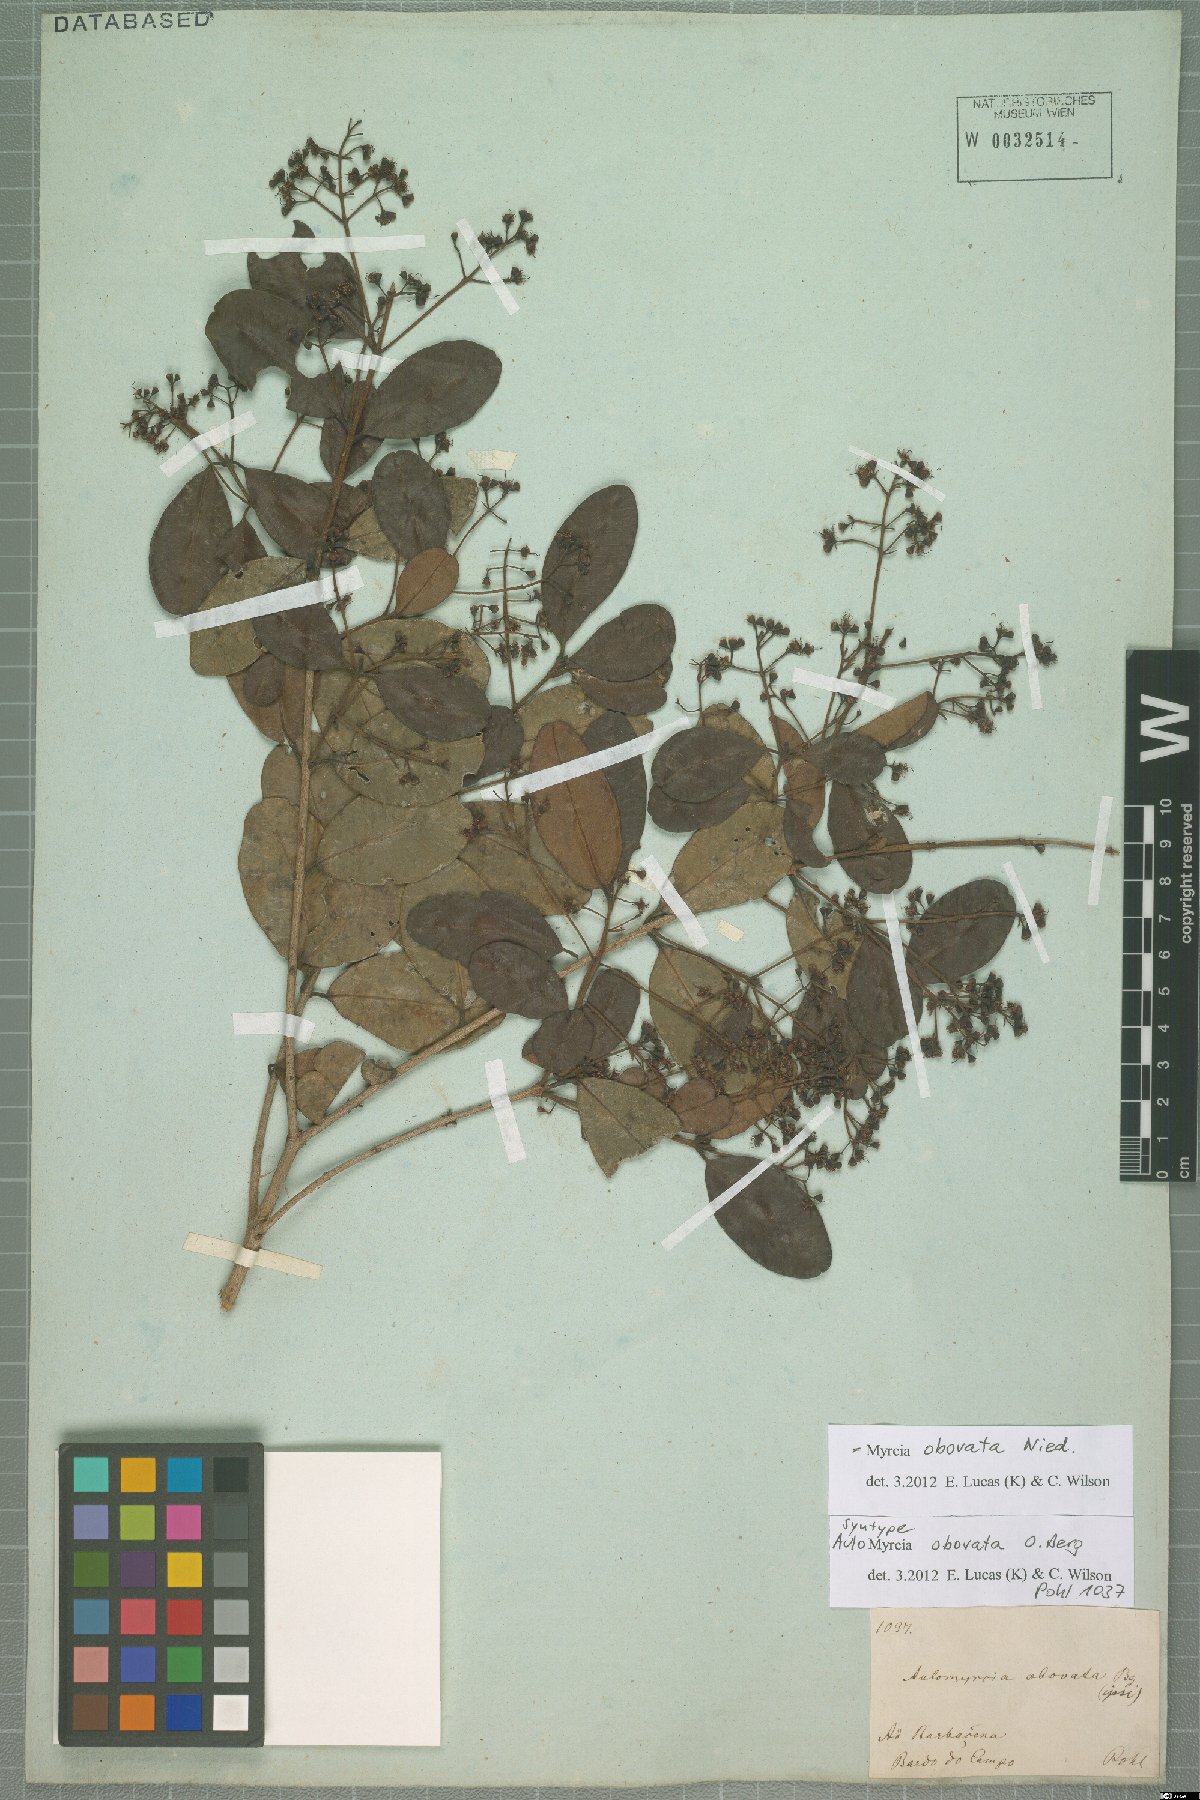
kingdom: Plantae
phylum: Tracheophyta
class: Magnoliopsida
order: Myrtales
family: Myrtaceae
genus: Myrcia
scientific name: Myrcia obovata
